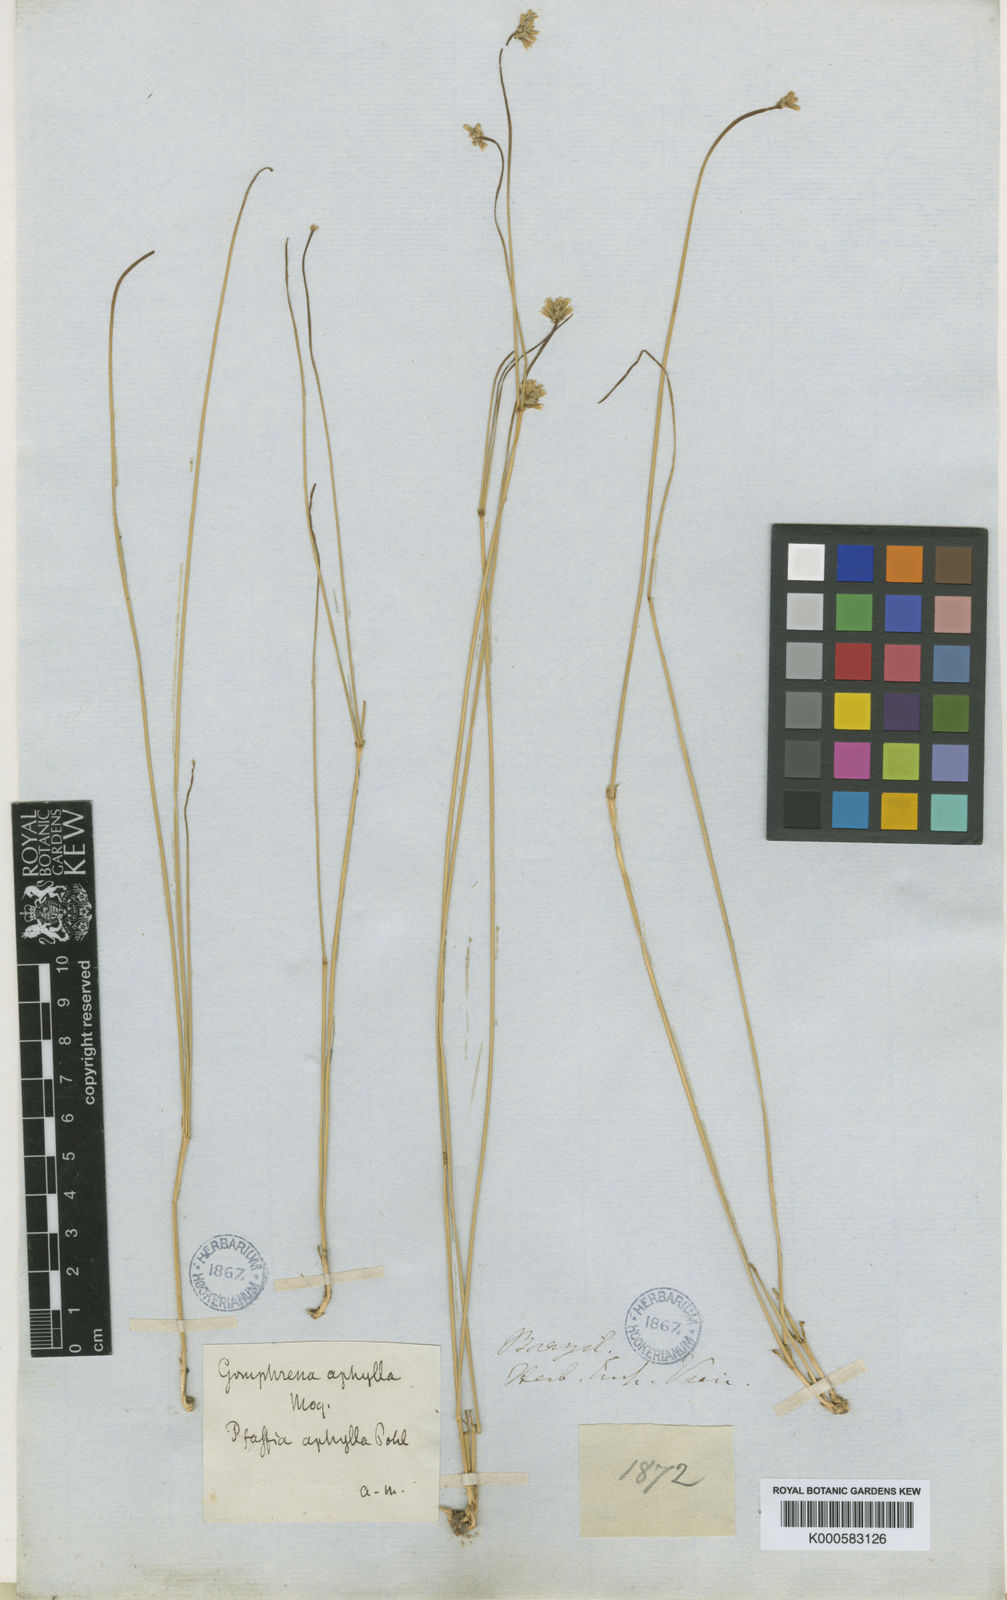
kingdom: Plantae
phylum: Tracheophyta
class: Magnoliopsida
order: Caryophyllales
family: Amaranthaceae
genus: Gomphrena
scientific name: Gomphrena aphylla
